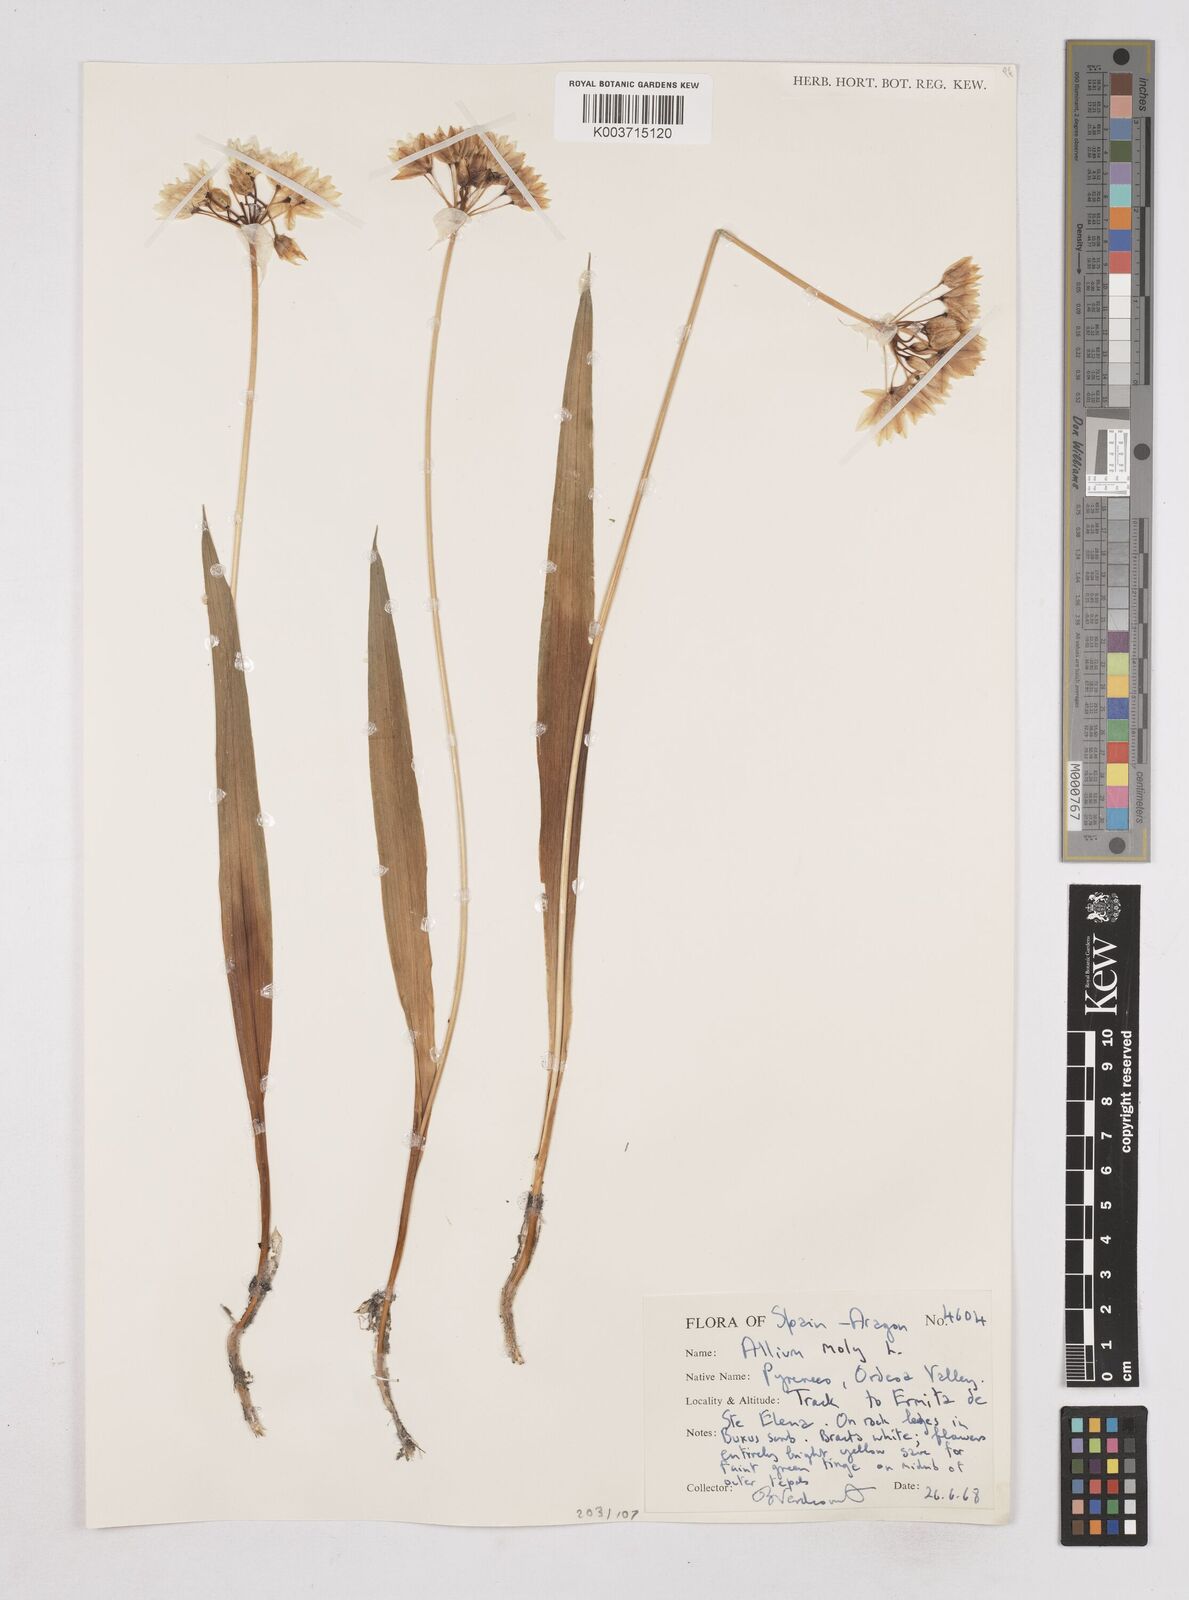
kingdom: Plantae
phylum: Tracheophyta
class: Liliopsida
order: Asparagales
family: Amaryllidaceae
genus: Allium
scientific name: Allium moly
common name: Yellow garlic
